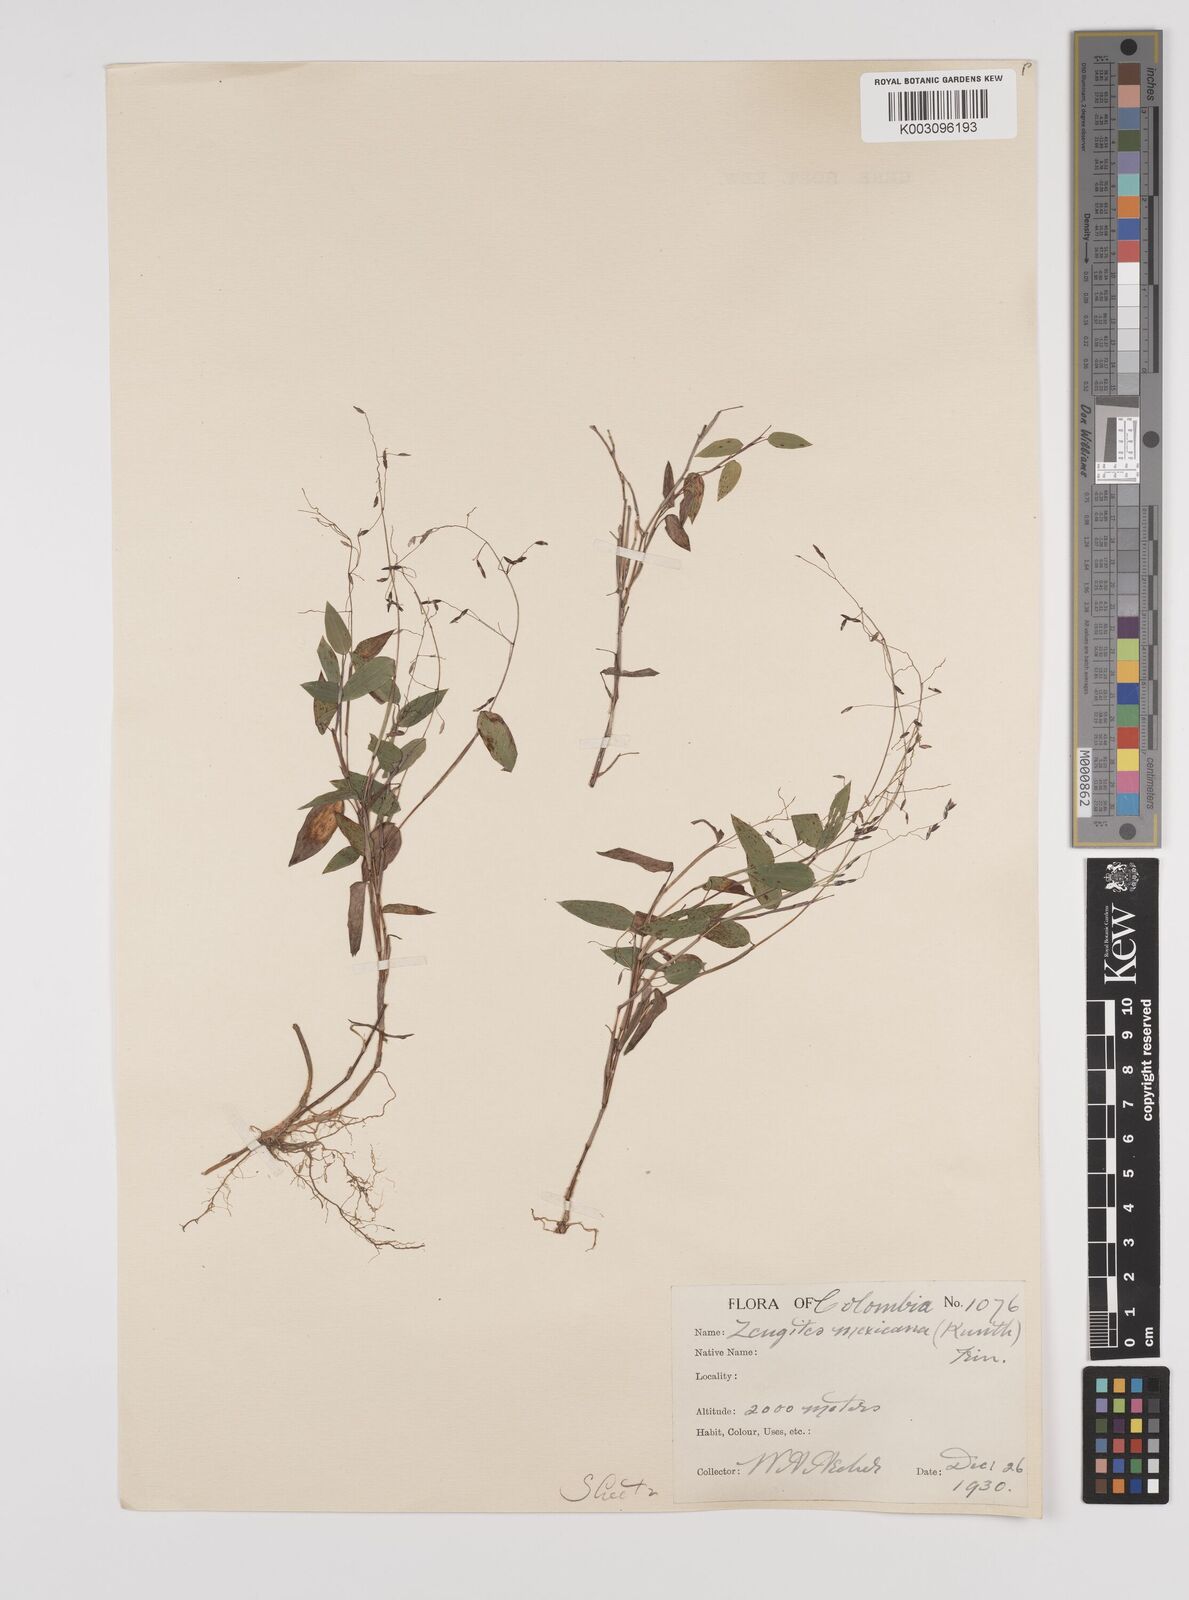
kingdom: Plantae
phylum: Tracheophyta
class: Liliopsida
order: Poales
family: Poaceae
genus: Zeugites
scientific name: Zeugites americanus
